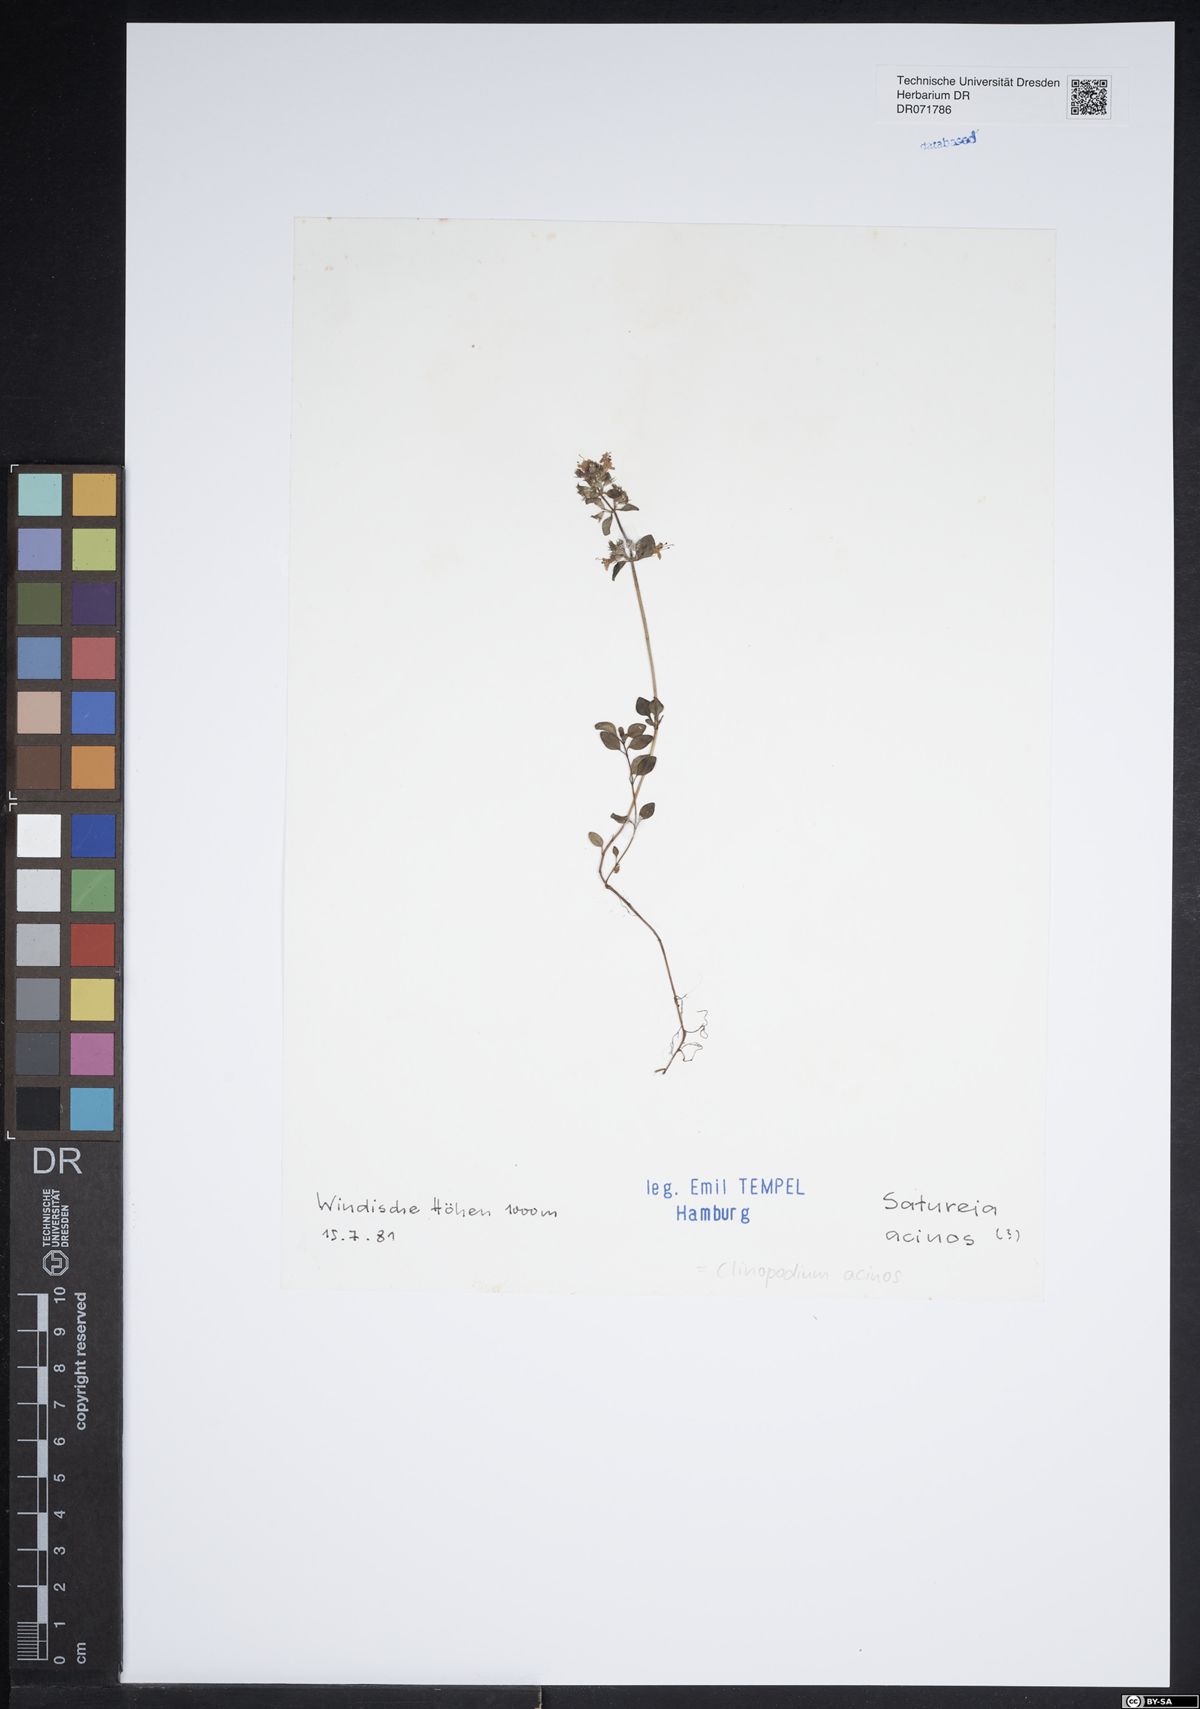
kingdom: Plantae
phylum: Tracheophyta
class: Magnoliopsida
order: Lamiales
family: Lamiaceae
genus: Clinopodium
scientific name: Clinopodium acinos
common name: Basil thyme
